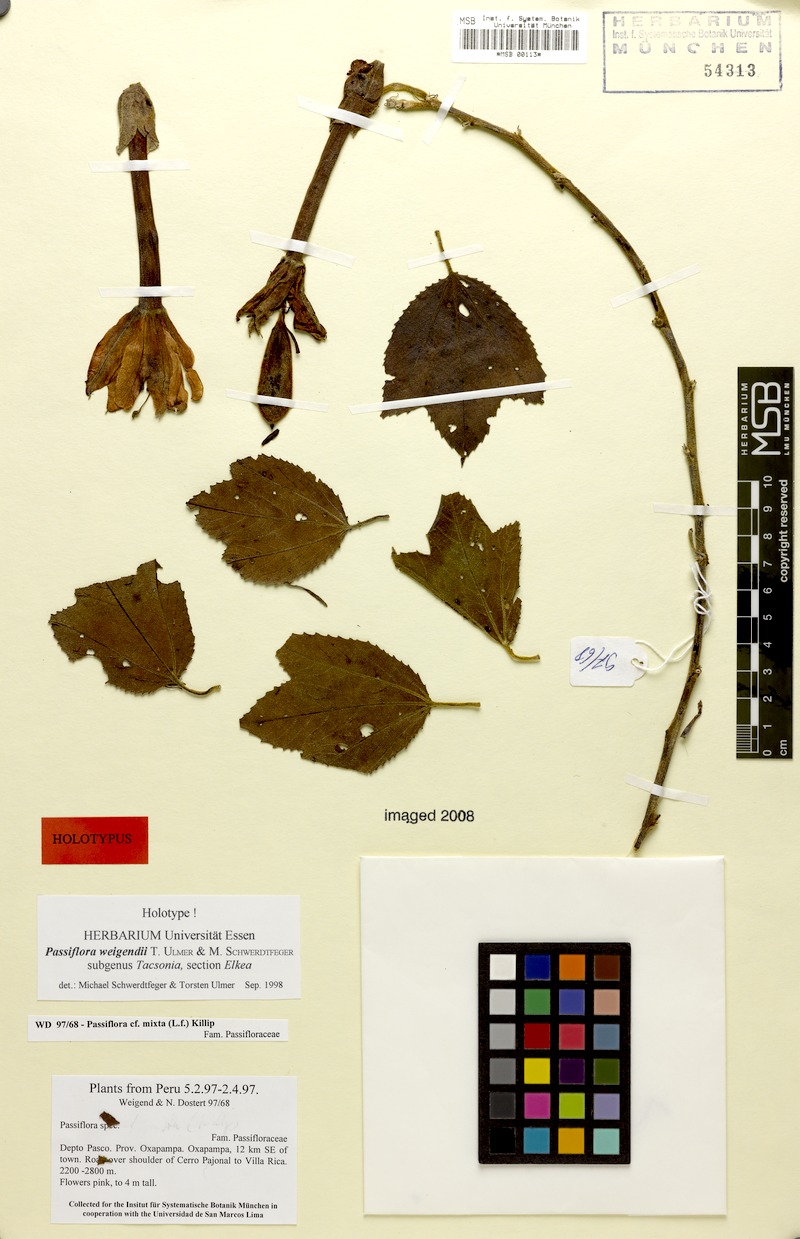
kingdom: Plantae
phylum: Tracheophyta
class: Magnoliopsida
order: Malpighiales
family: Passifloraceae
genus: Passiflora
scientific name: Passiflora weigendii
